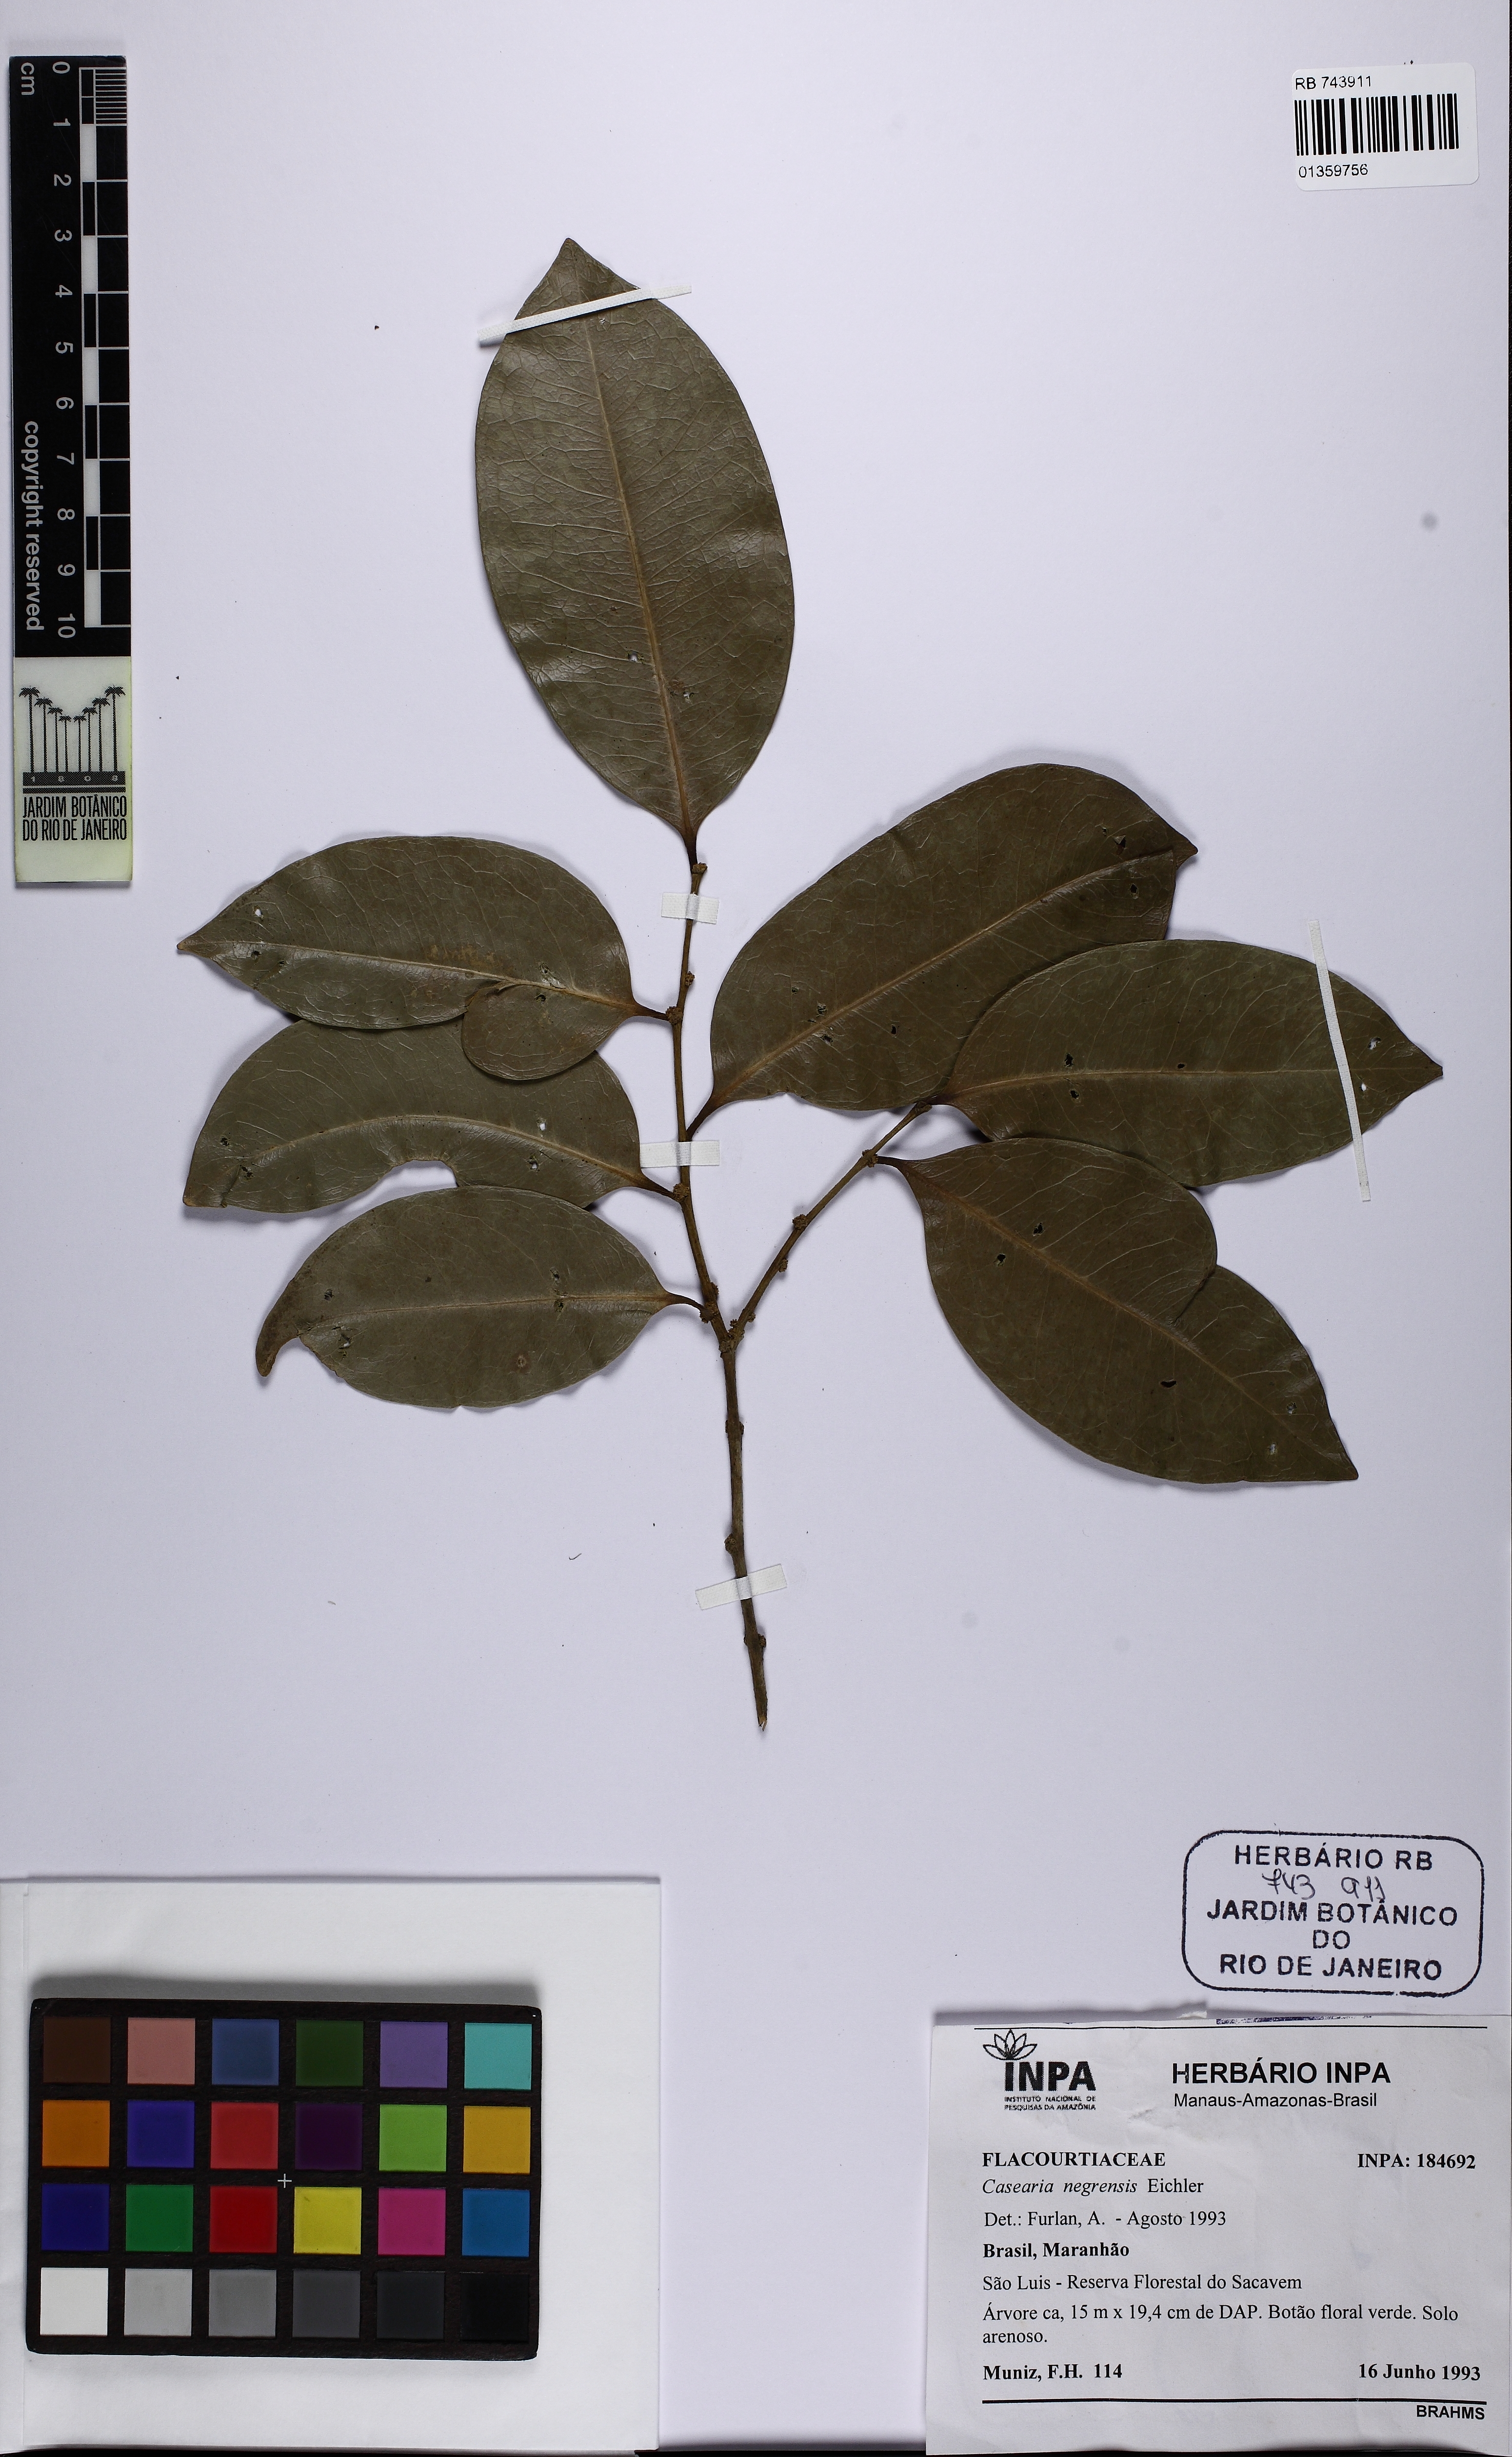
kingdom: Plantae
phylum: Tracheophyta
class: Magnoliopsida
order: Malpighiales
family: Salicaceae
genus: Casearia
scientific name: Casearia negrensis
